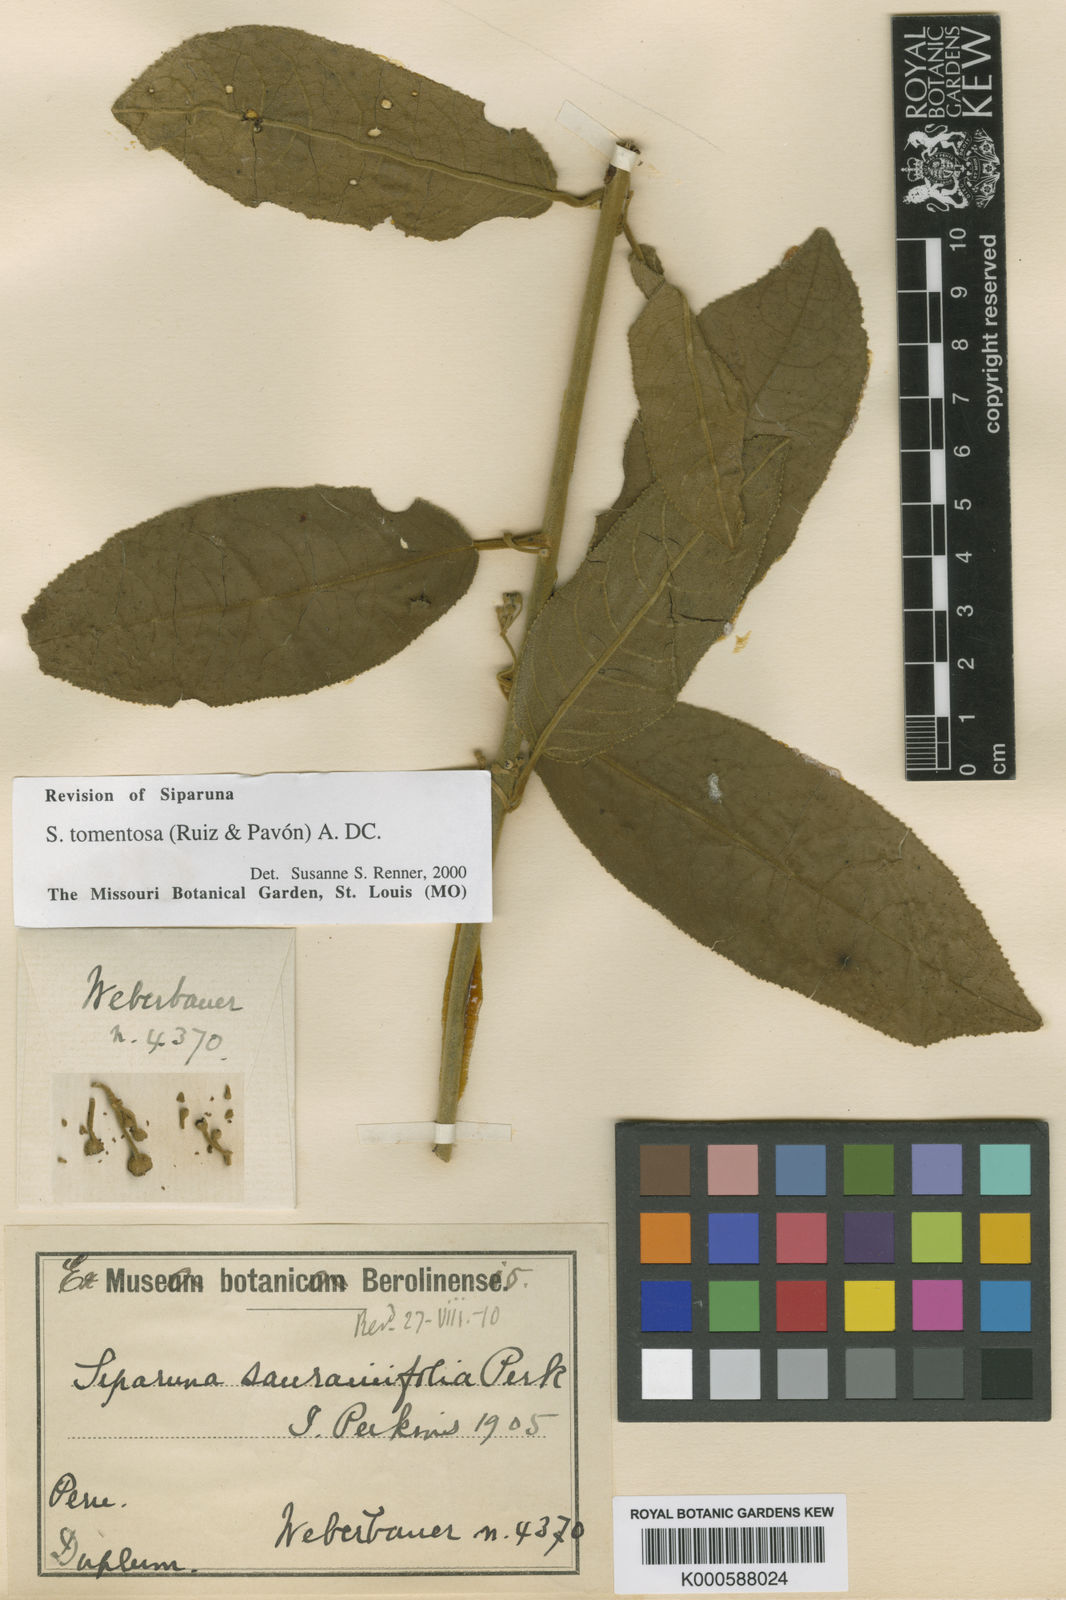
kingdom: Plantae
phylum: Tracheophyta
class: Magnoliopsida
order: Laurales
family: Siparunaceae
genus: Siparuna
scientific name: Siparuna tomentosa
